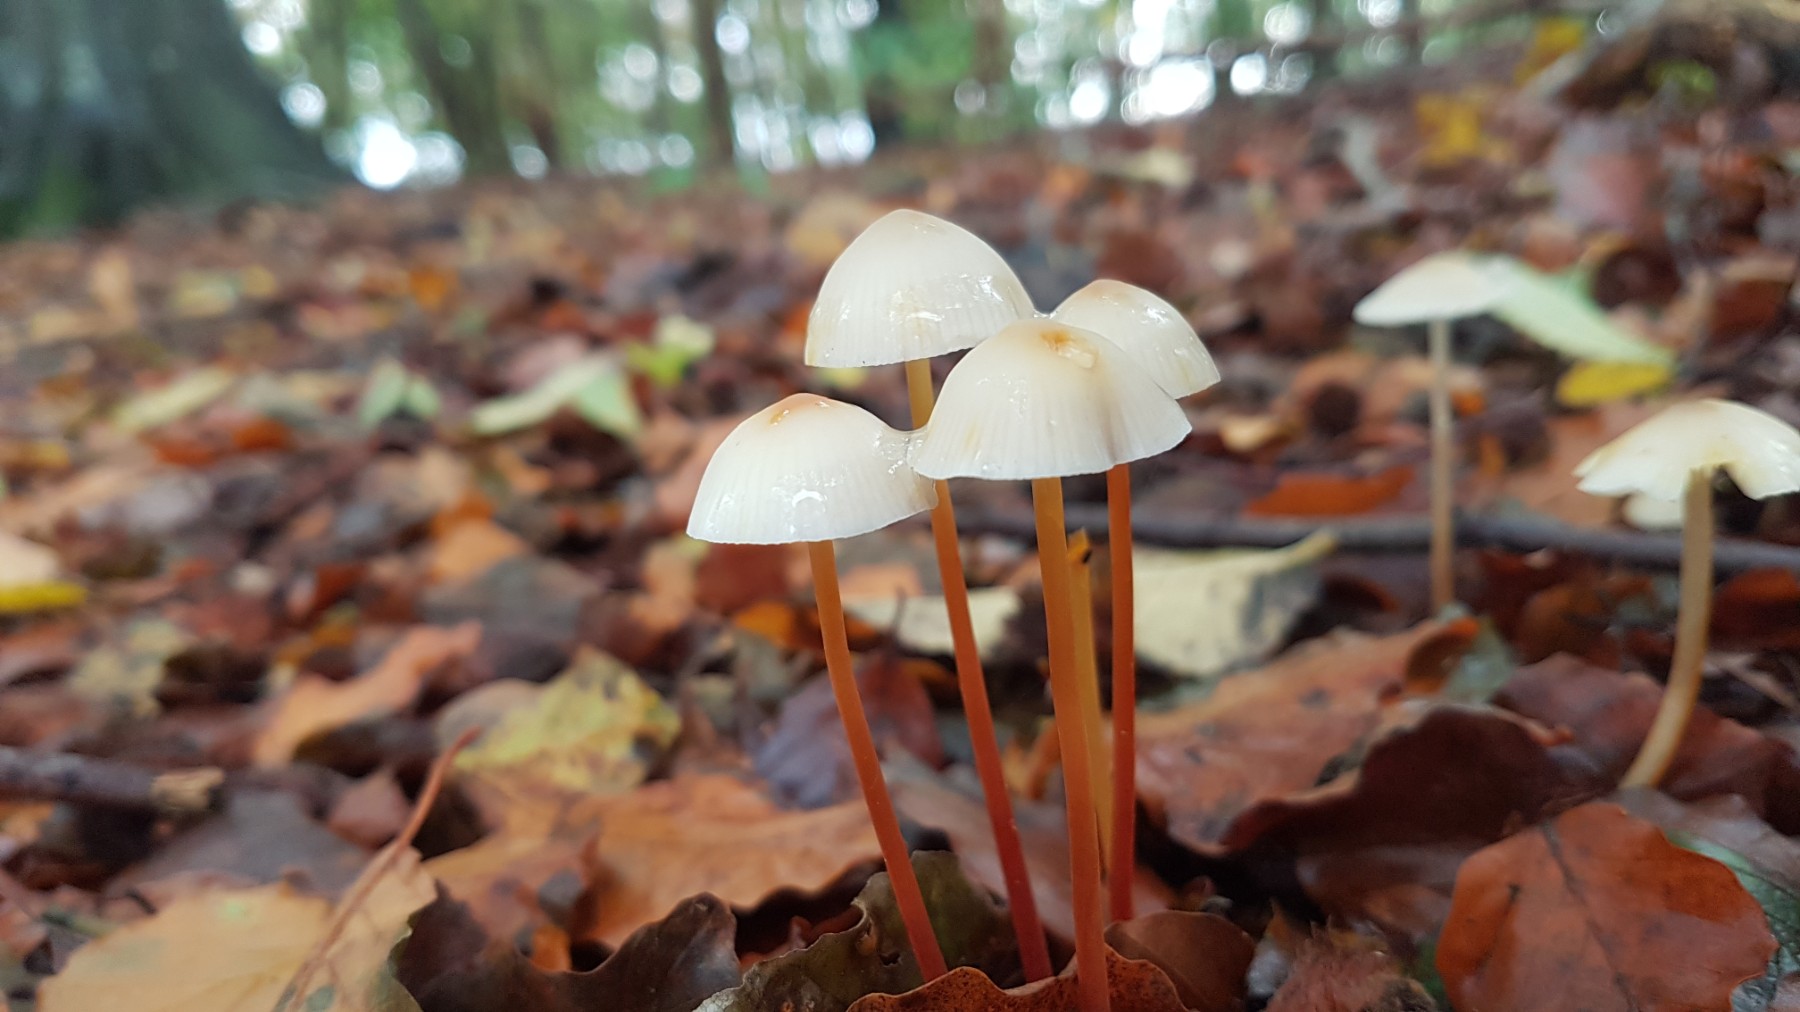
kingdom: Fungi
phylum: Basidiomycota
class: Agaricomycetes
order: Agaricales
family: Mycenaceae
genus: Mycena
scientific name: Mycena crocata
